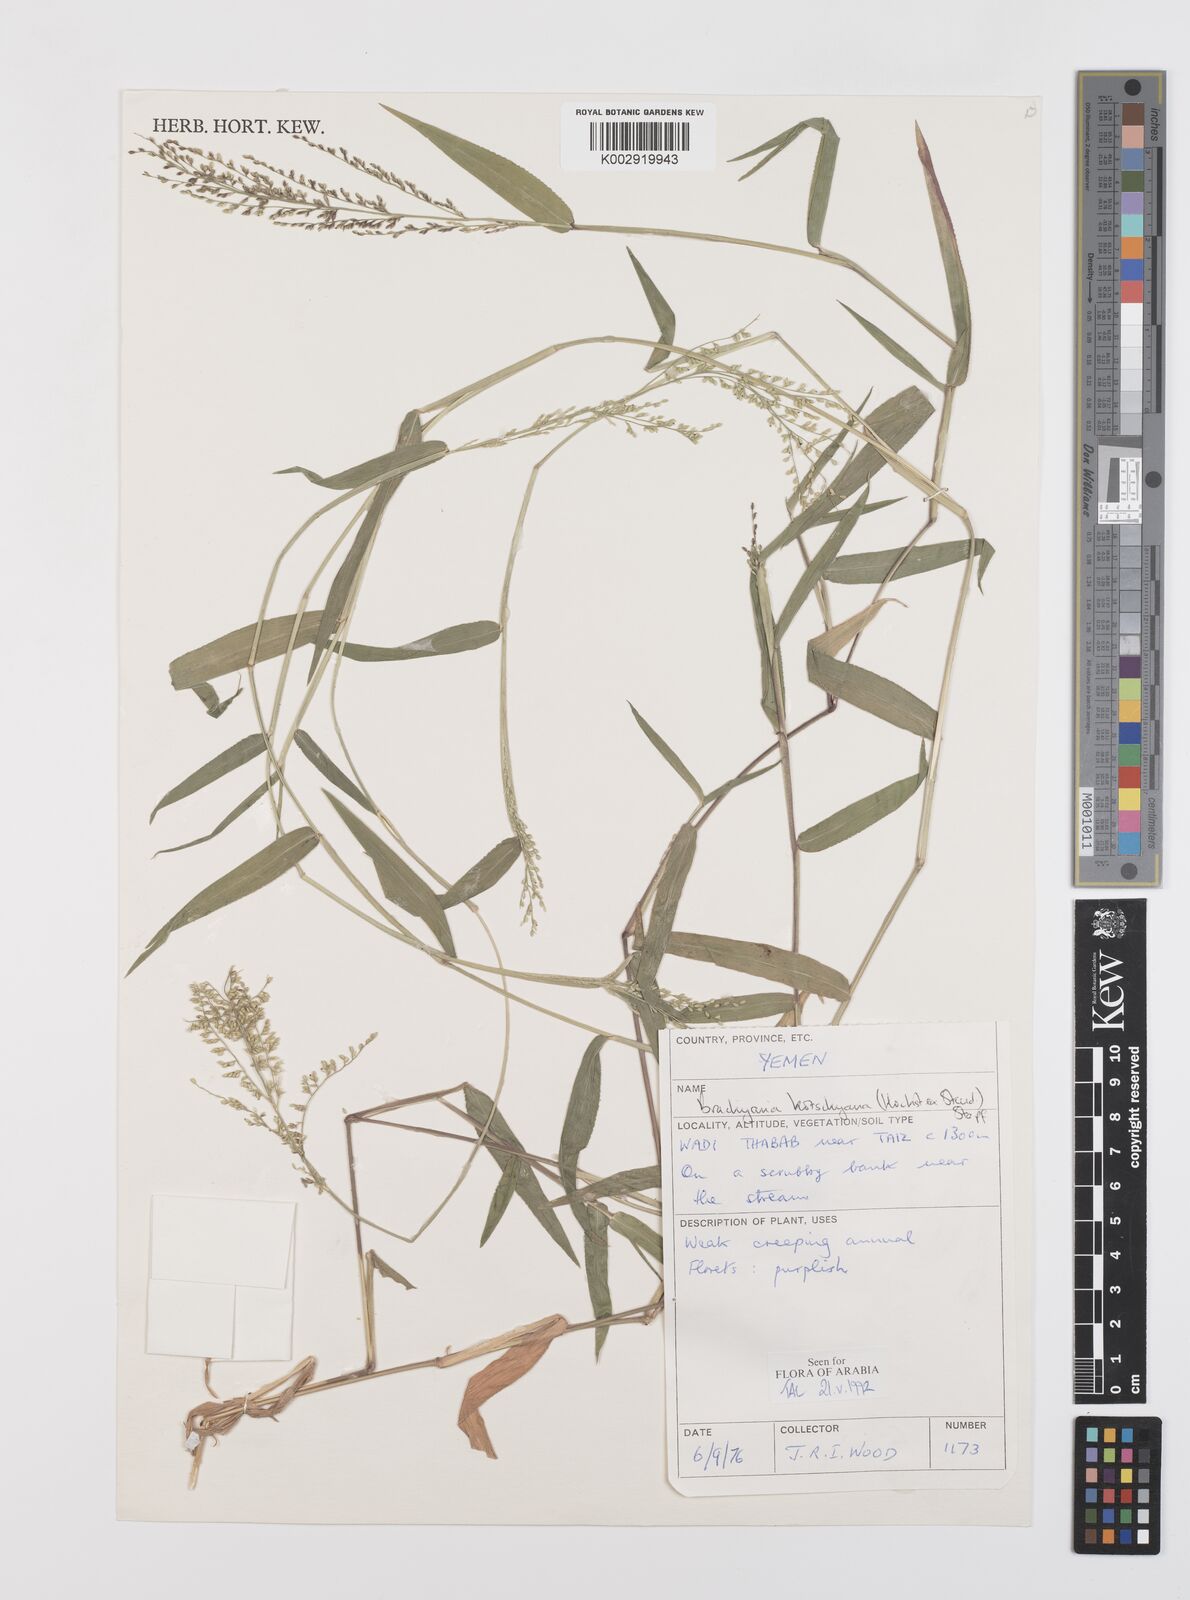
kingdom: Plantae
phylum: Tracheophyta
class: Liliopsida
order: Poales
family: Poaceae
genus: Urochloa
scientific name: Urochloa comata
